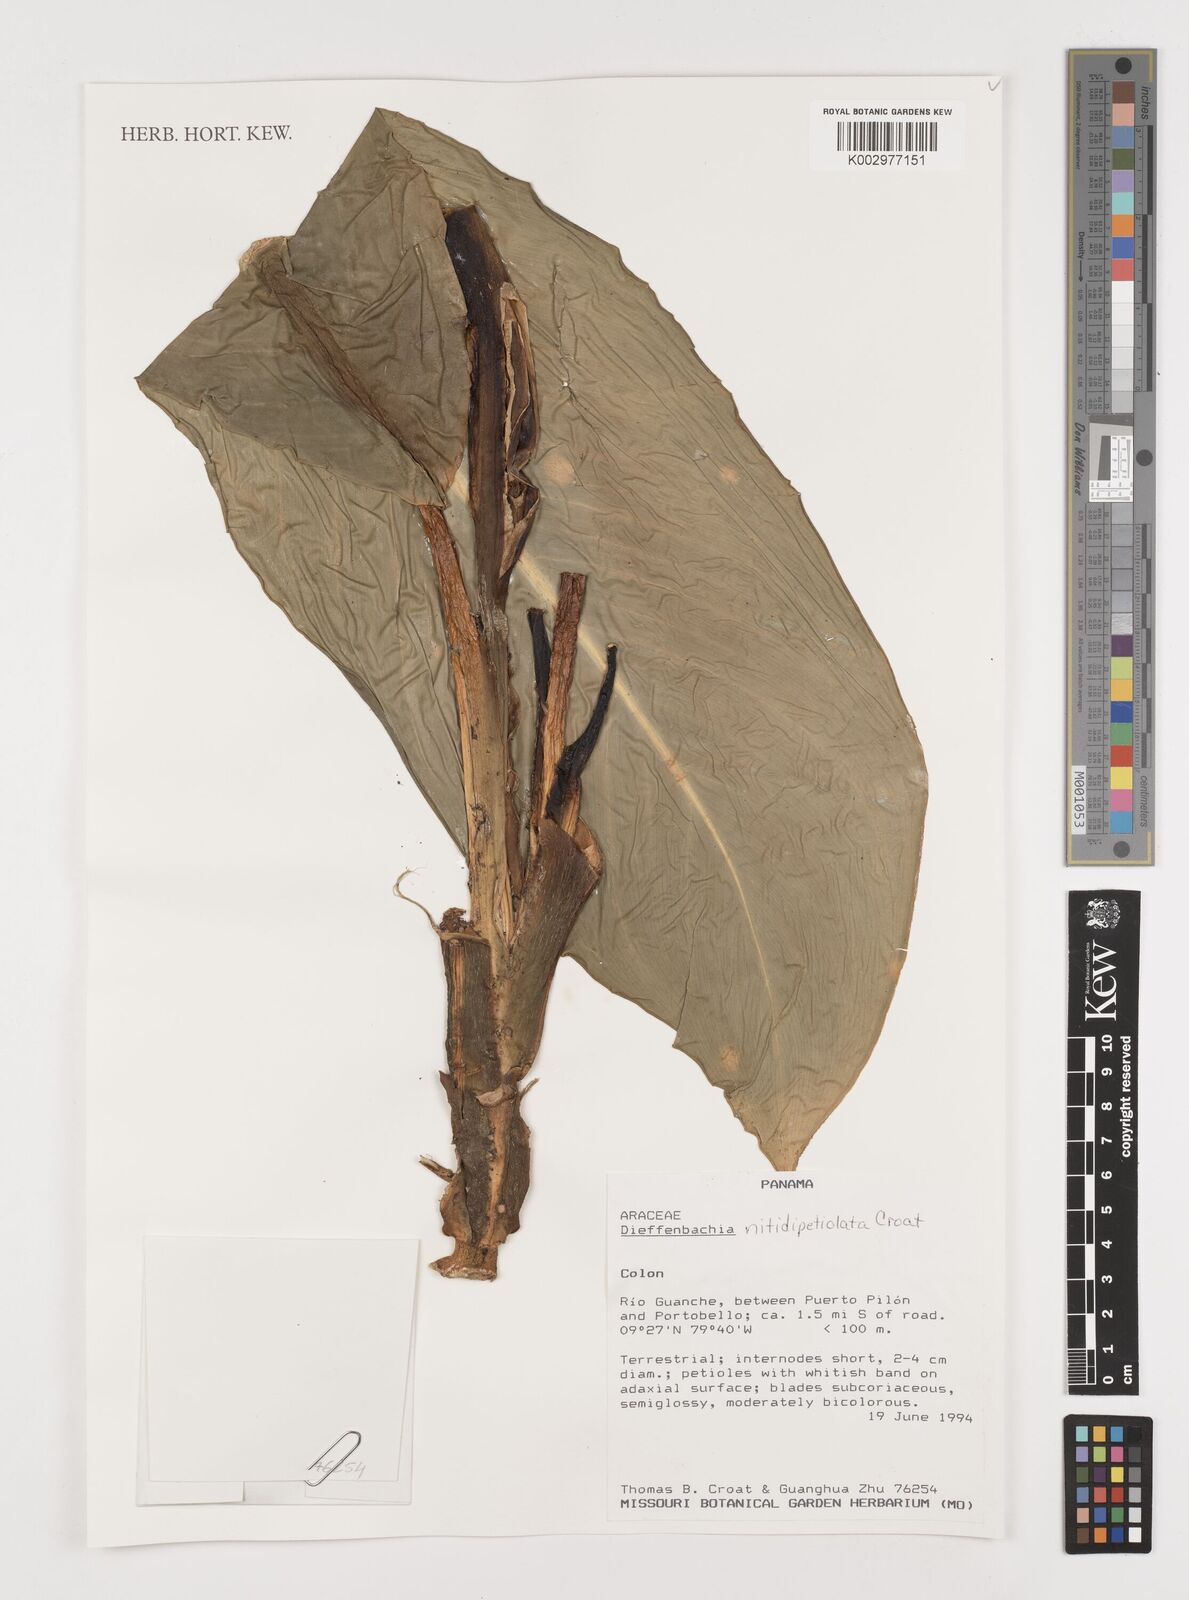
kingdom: Plantae
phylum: Tracheophyta
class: Liliopsida
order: Alismatales
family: Araceae
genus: Dieffenbachia
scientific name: Dieffenbachia nitidipetiolata
